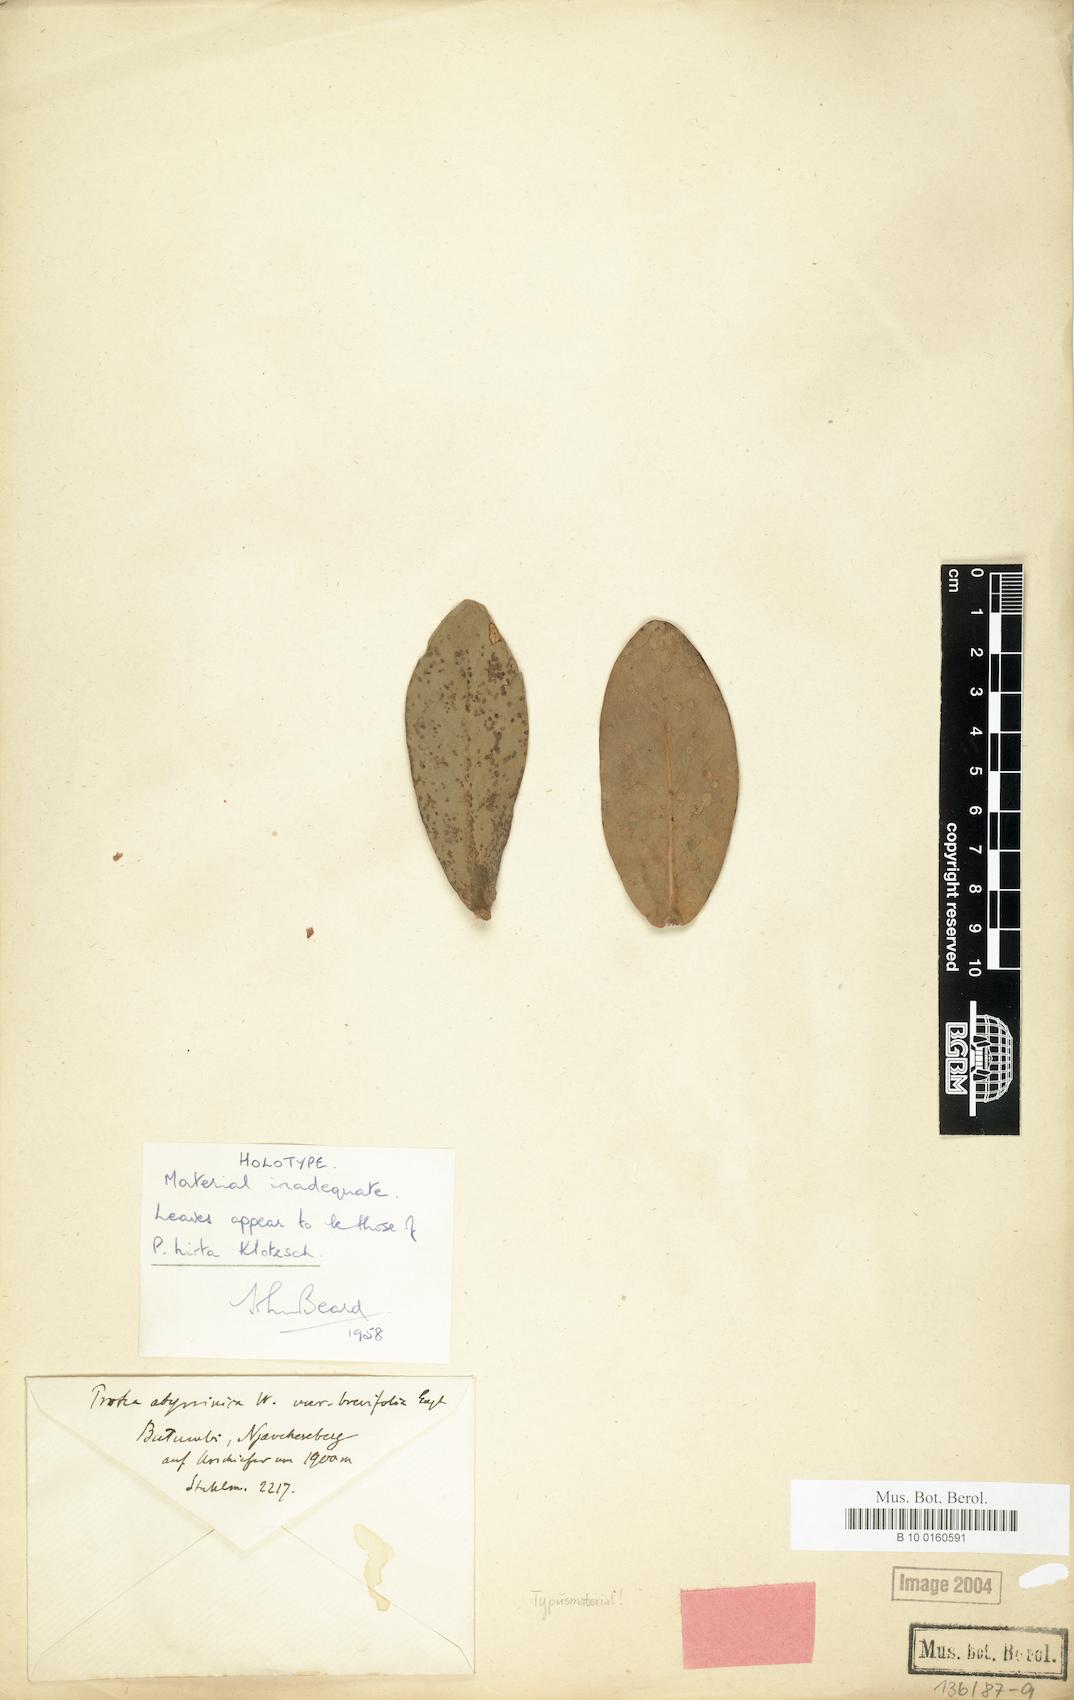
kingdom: Plantae
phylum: Tracheophyta
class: Magnoliopsida
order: Proteales
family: Proteaceae
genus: Protea
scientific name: Protea welwitschii
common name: Cluster-head protea
